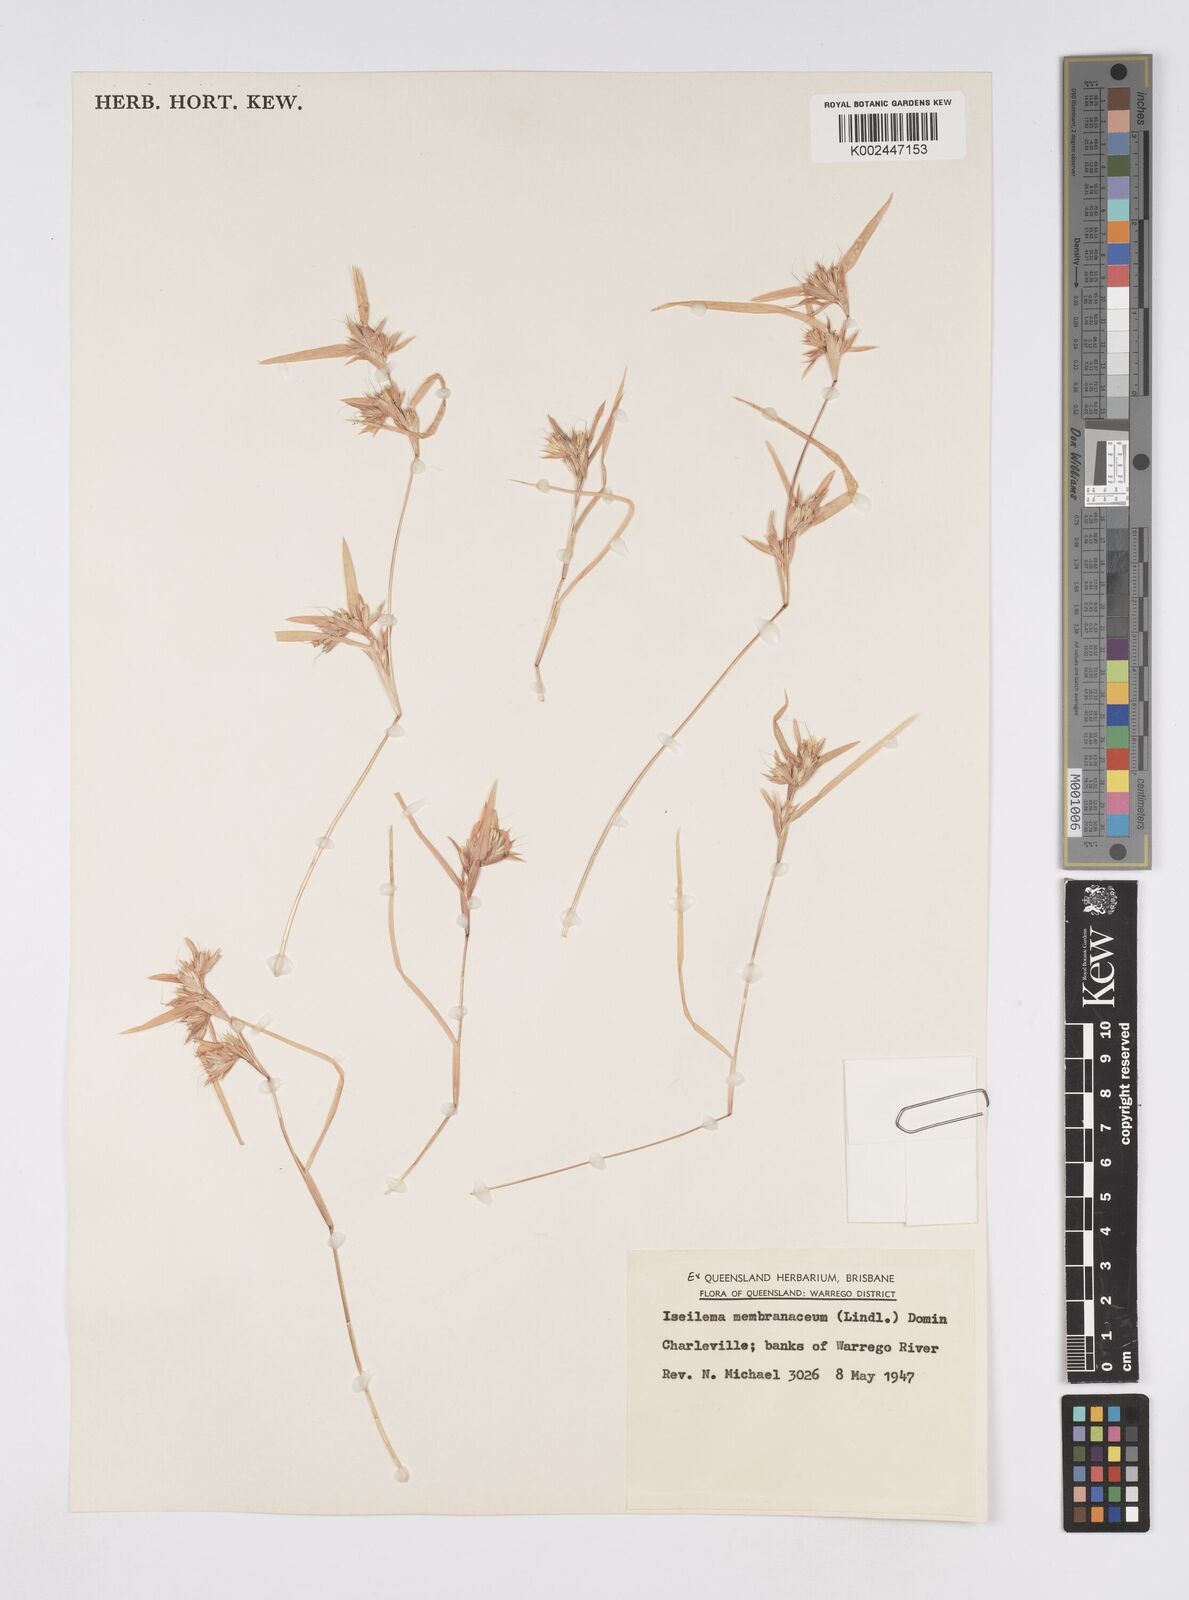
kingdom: Plantae
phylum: Tracheophyta
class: Liliopsida
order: Poales
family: Poaceae
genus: Iseilema
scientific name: Iseilema membranaceum
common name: Small flinders grass
